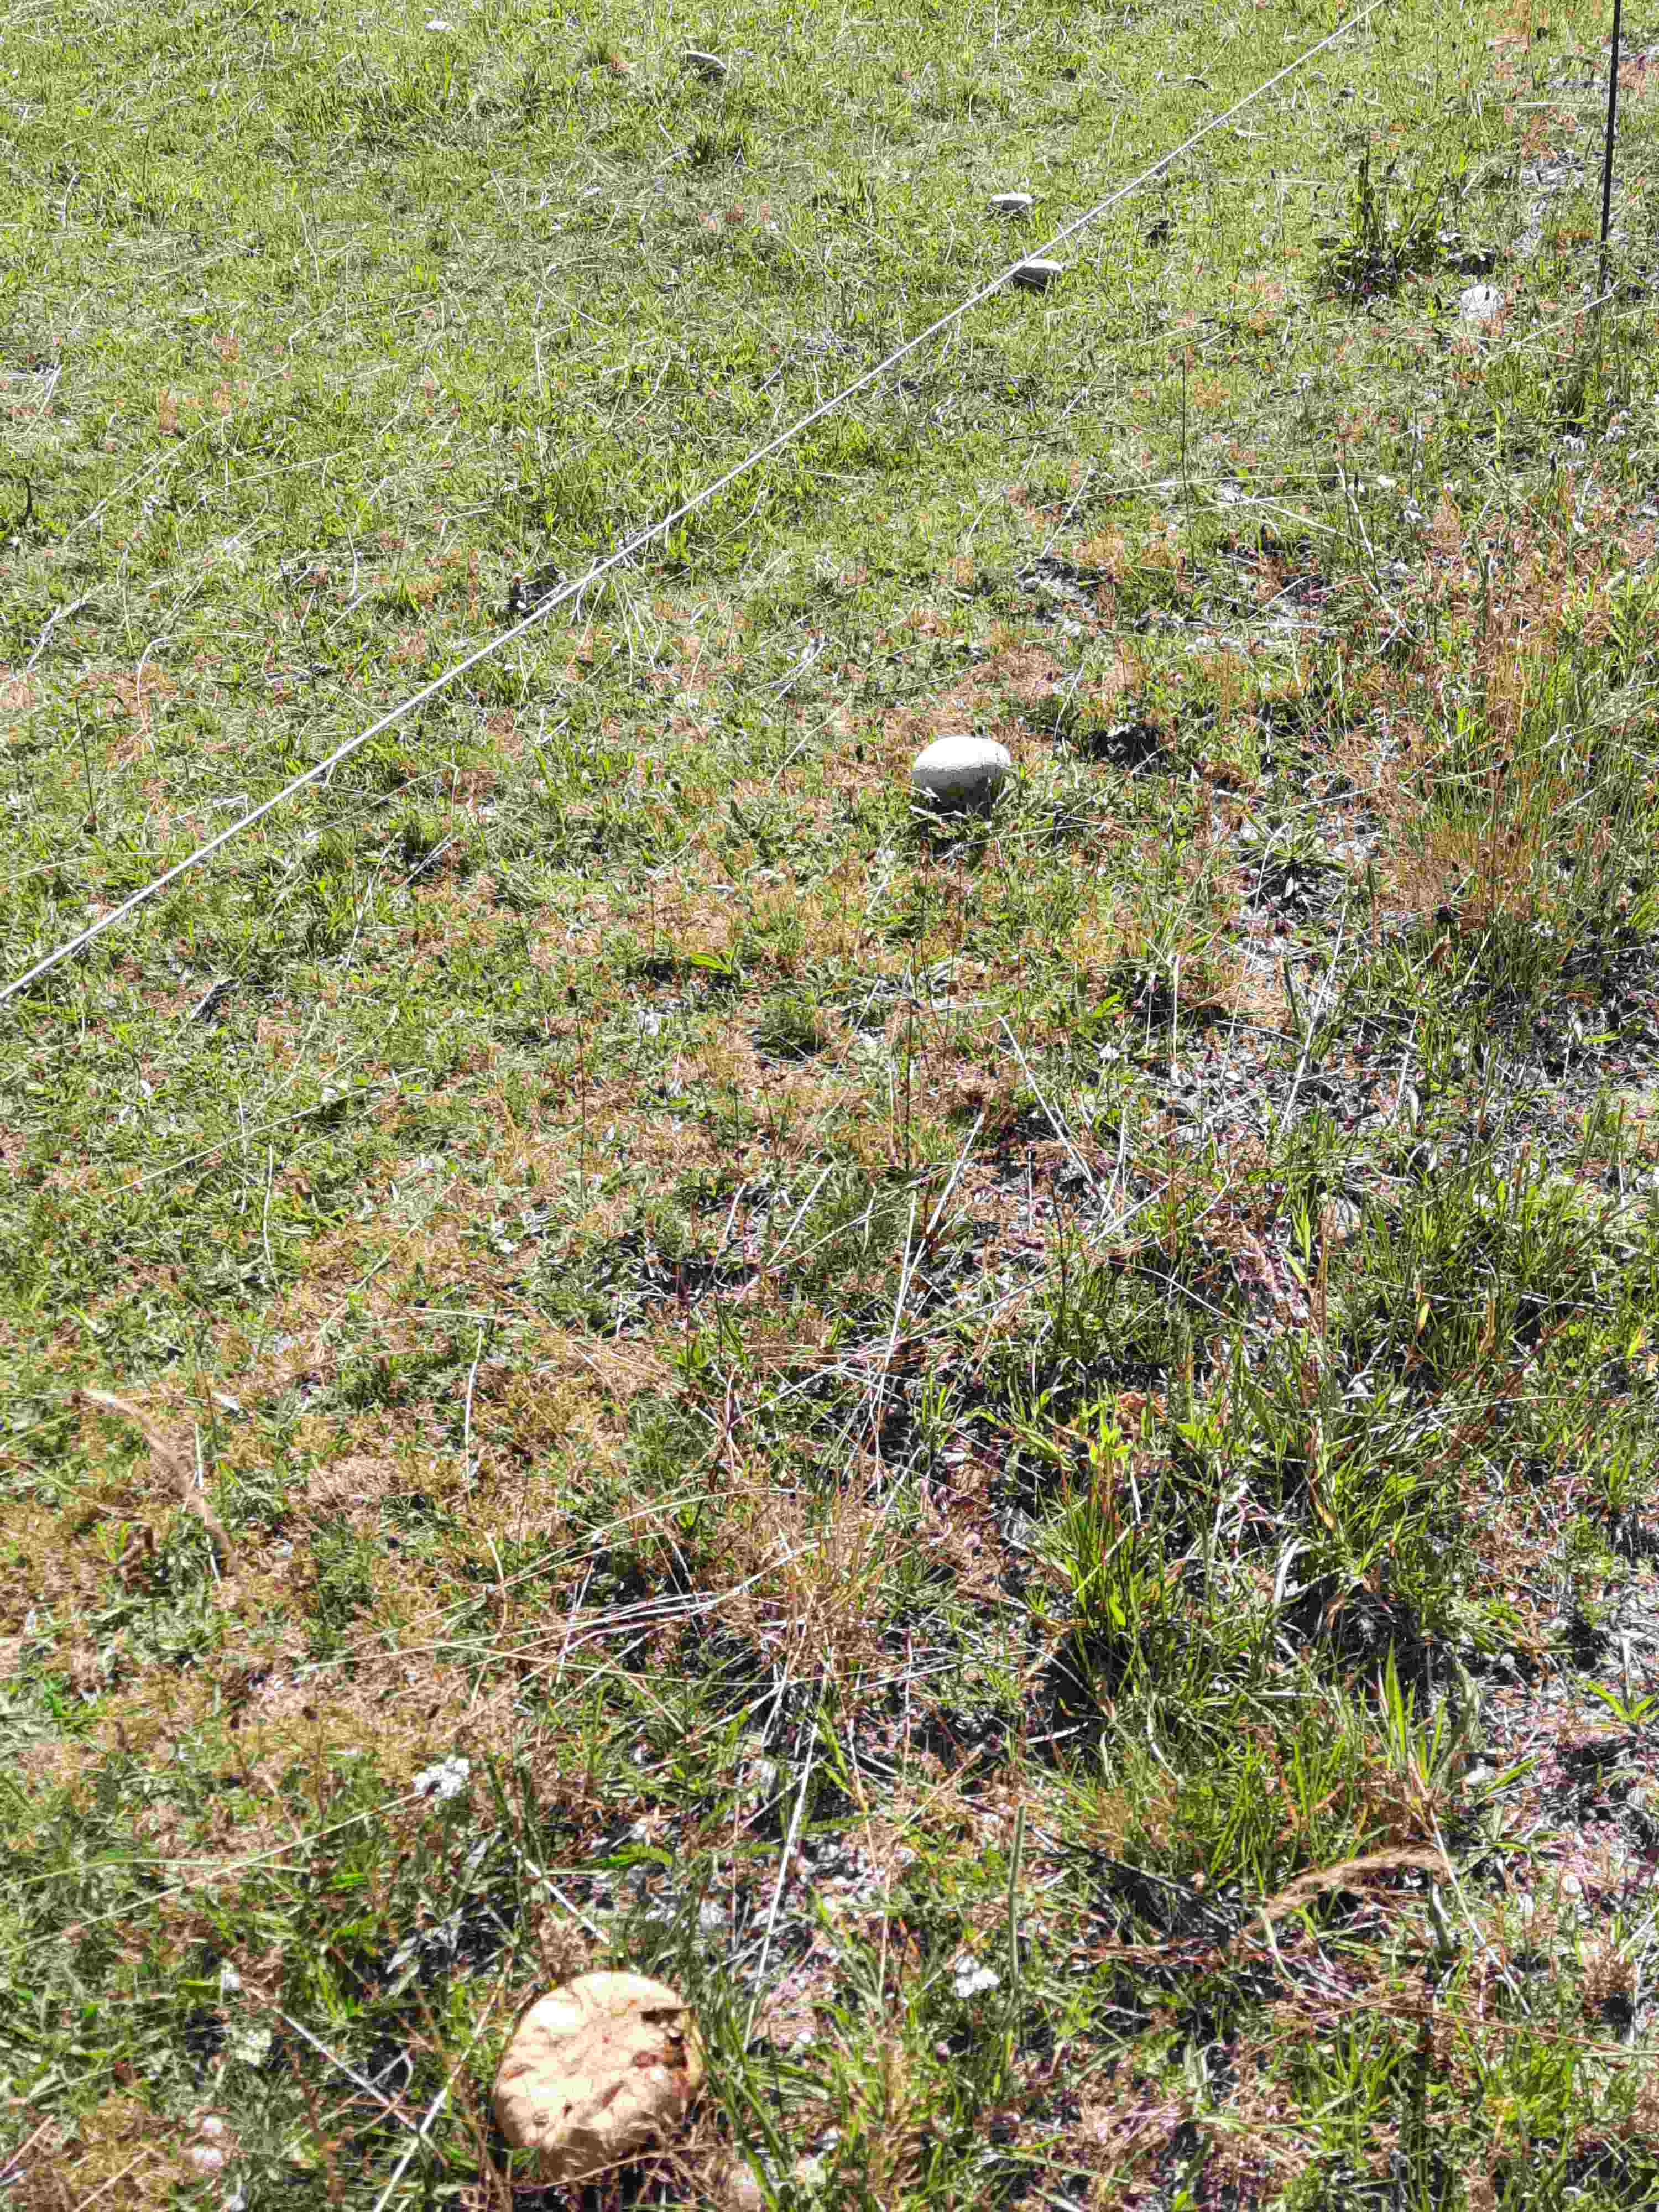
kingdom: Fungi
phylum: Basidiomycota
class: Agaricomycetes
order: Agaricales
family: Lycoperdaceae
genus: Bovistella
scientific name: Bovistella utriformis
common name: skællet støvbold
